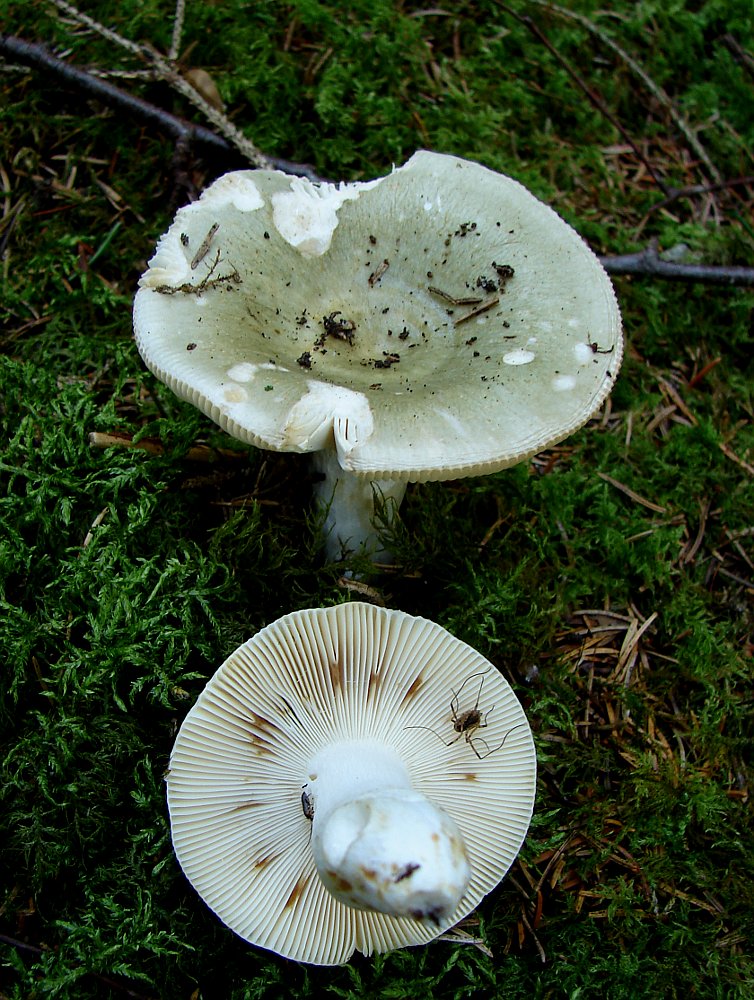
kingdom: Fungi
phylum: Basidiomycota
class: Agaricomycetes
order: Russulales
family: Russulaceae
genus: Russula
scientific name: Russula aeruginea
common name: græsgrøn skørhat
